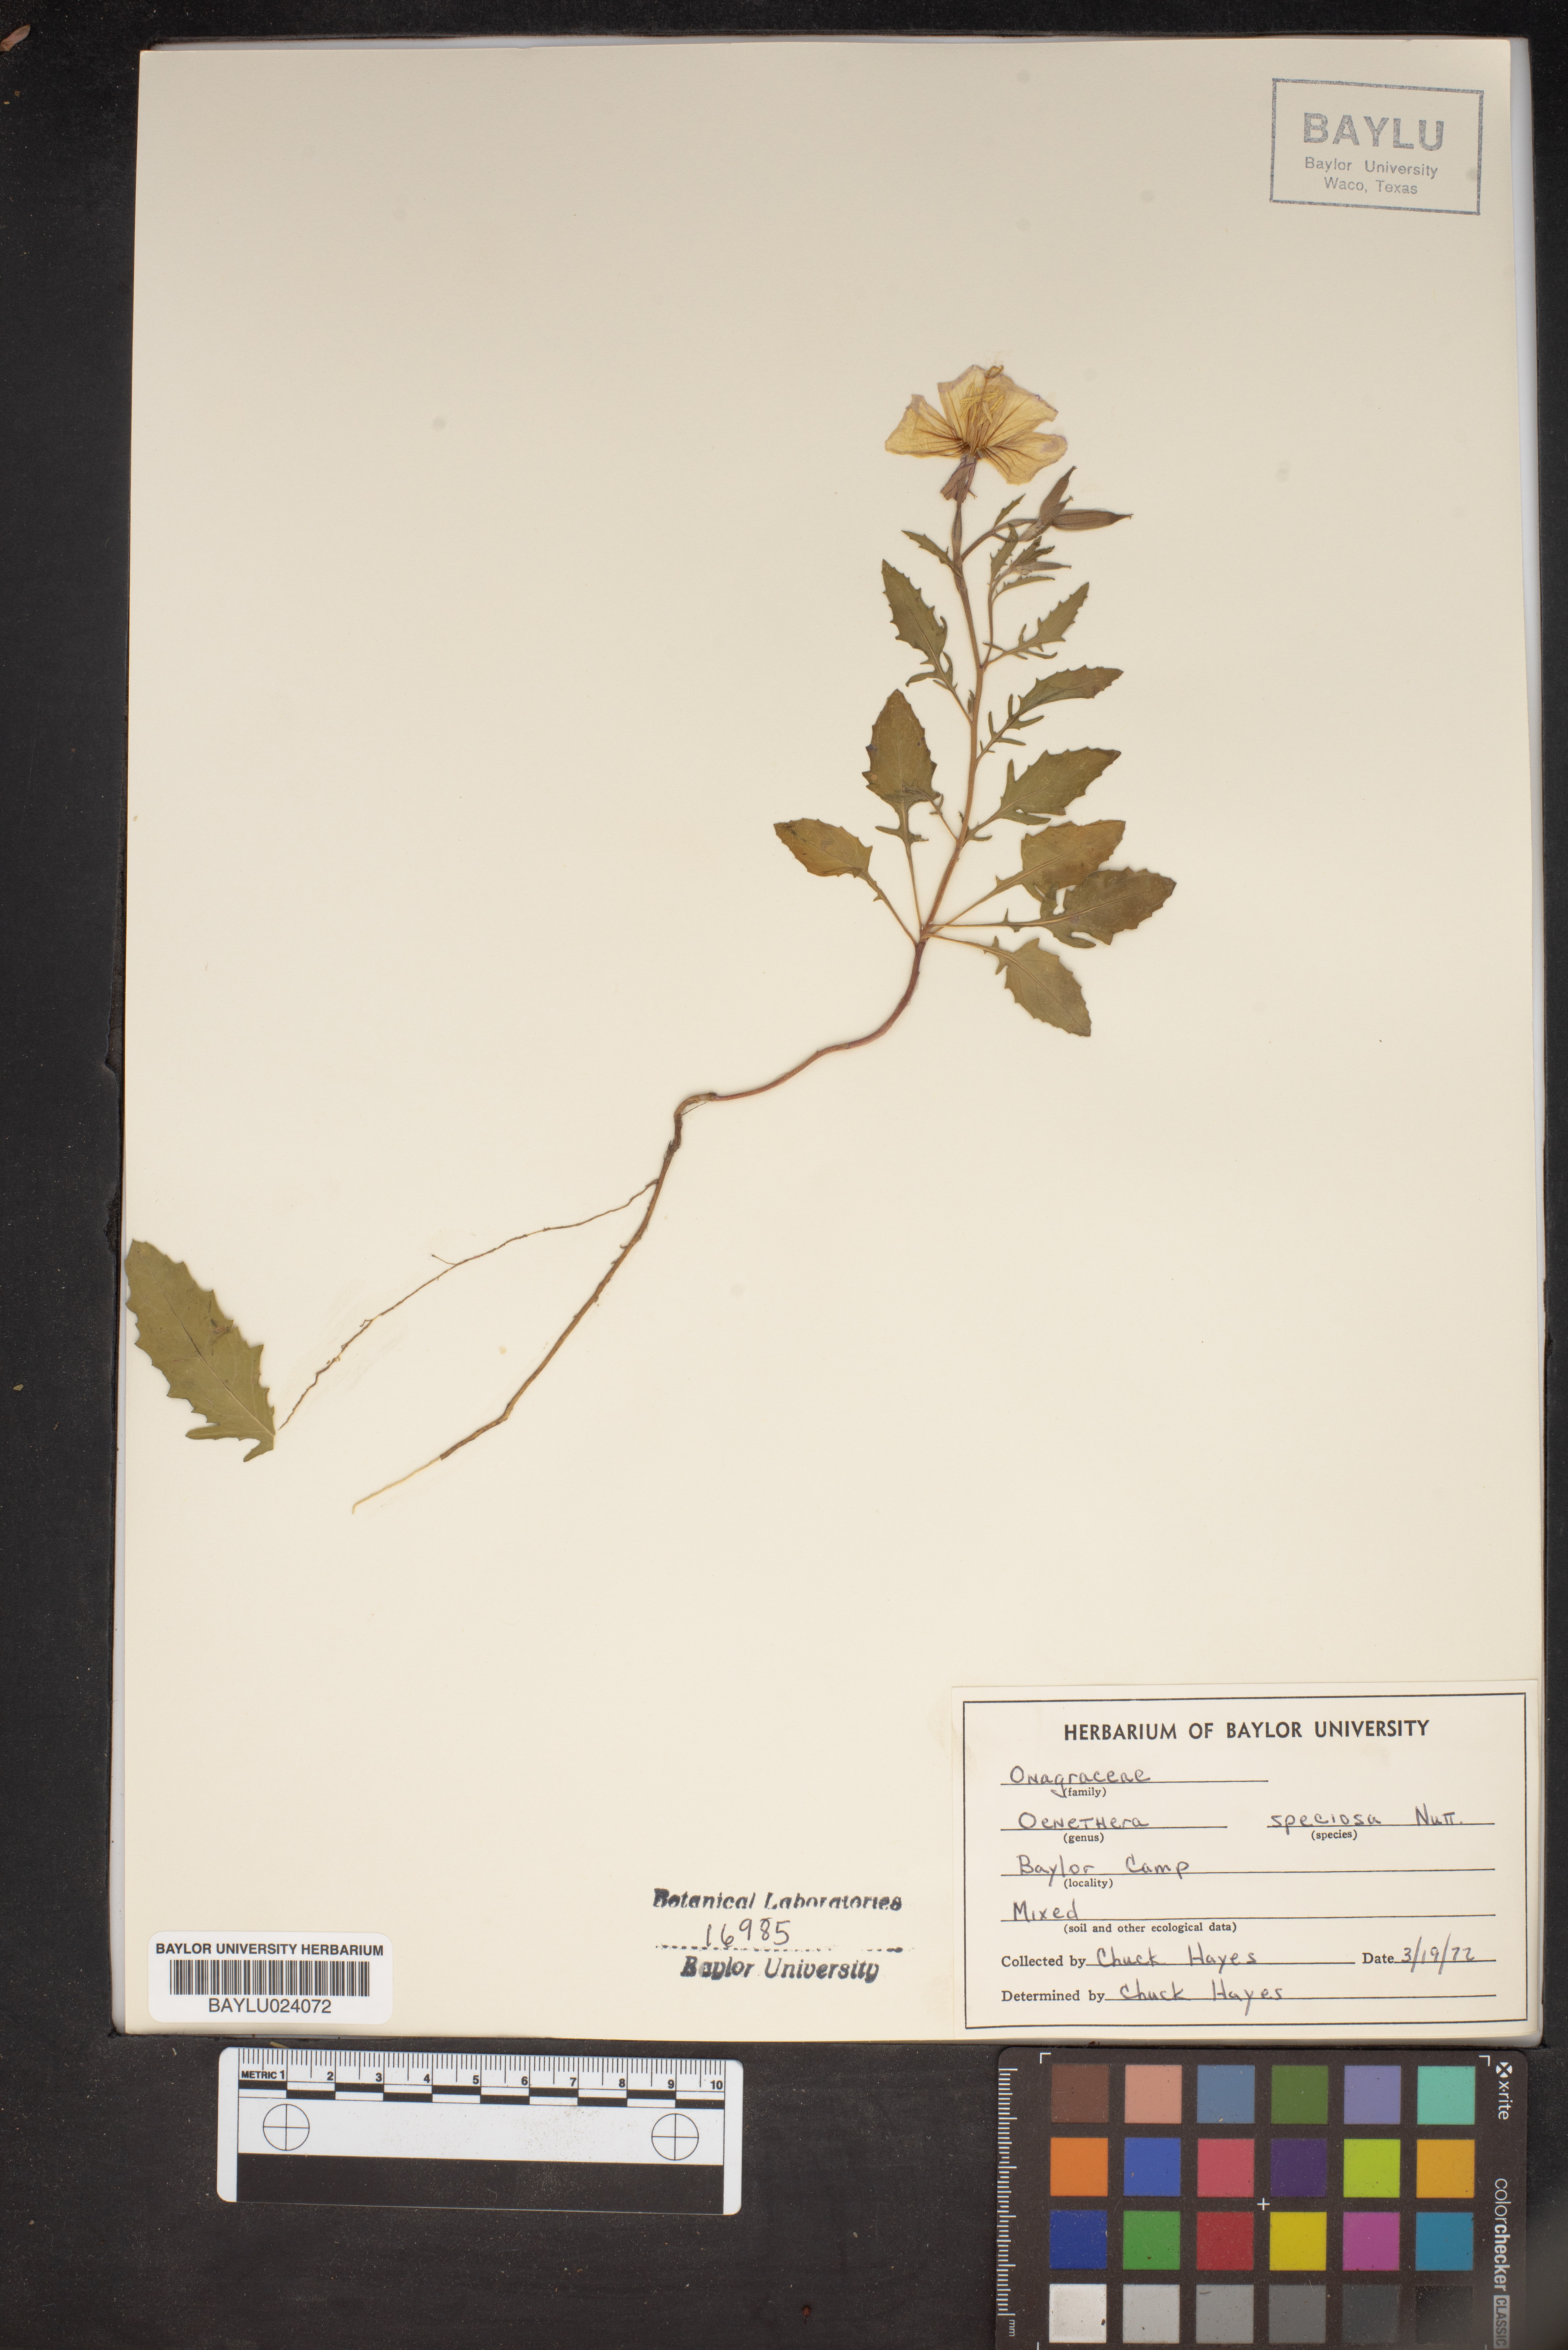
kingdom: Plantae
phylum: Tracheophyta
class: Magnoliopsida
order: Myrtales
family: Onagraceae
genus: Oenothera
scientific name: Oenothera speciosa
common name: White evening-primrose
